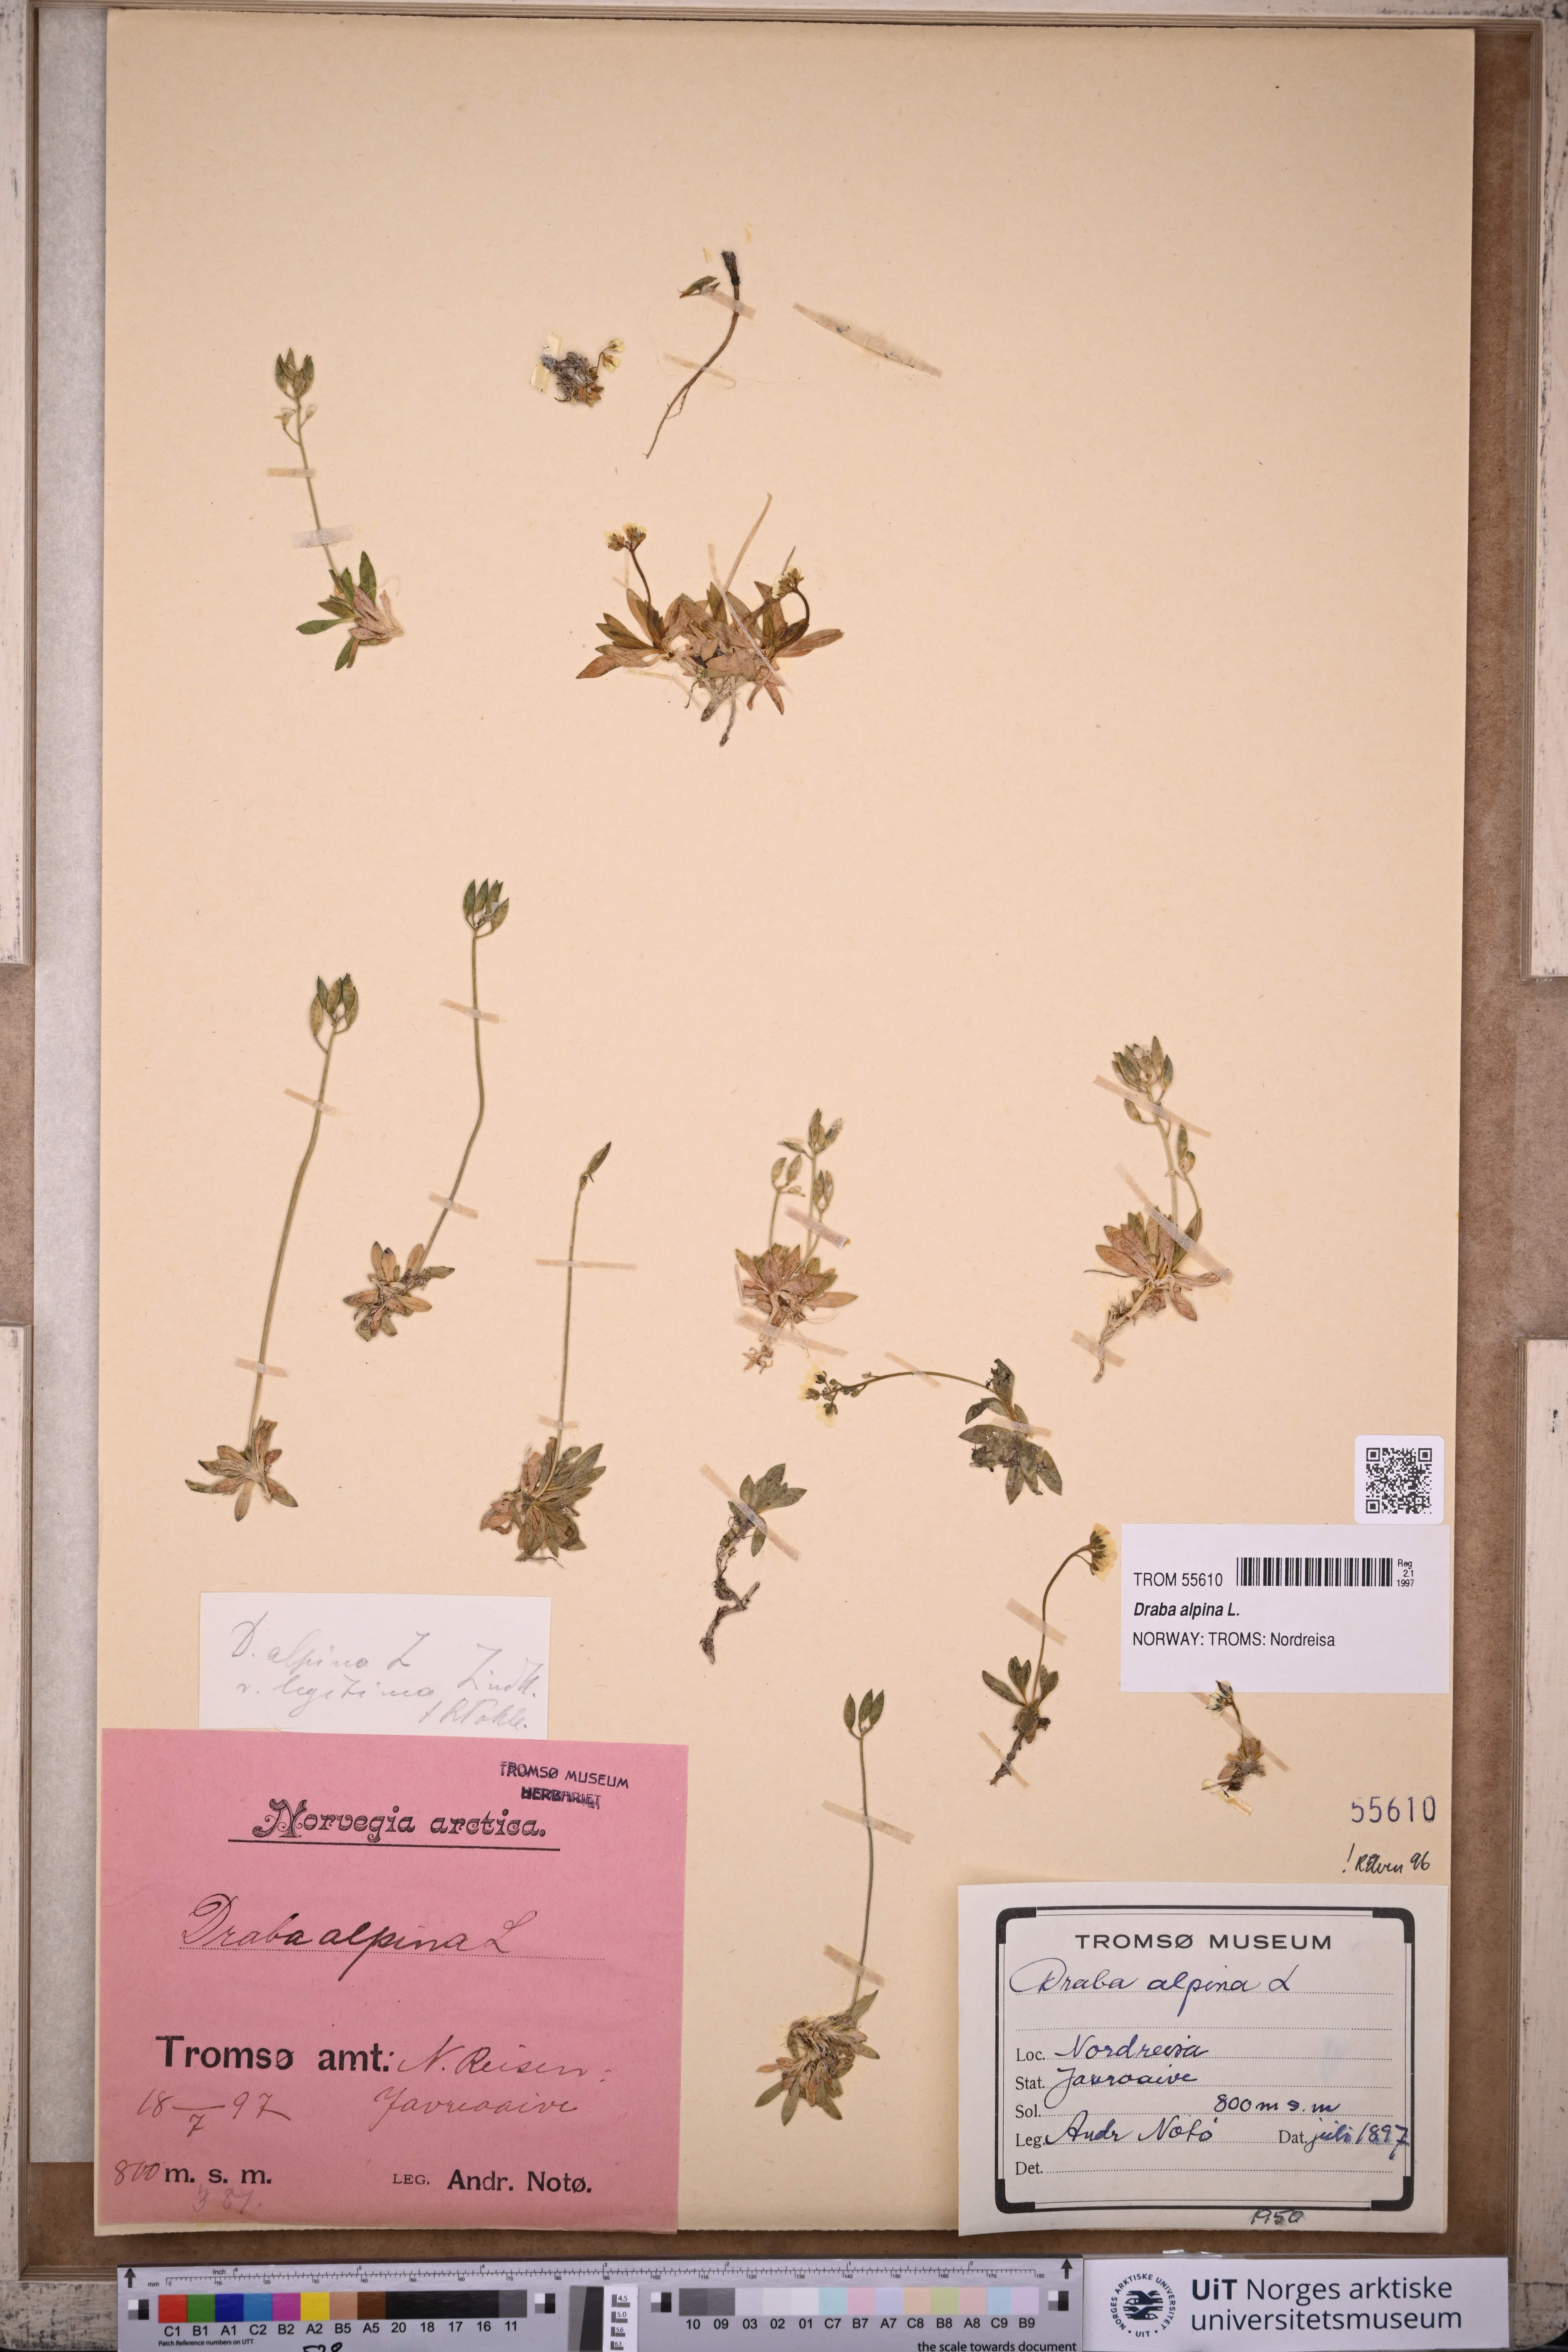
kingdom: Plantae
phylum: Tracheophyta
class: Magnoliopsida
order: Brassicales
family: Brassicaceae
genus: Draba
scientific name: Draba alpina
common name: Alpine draba
